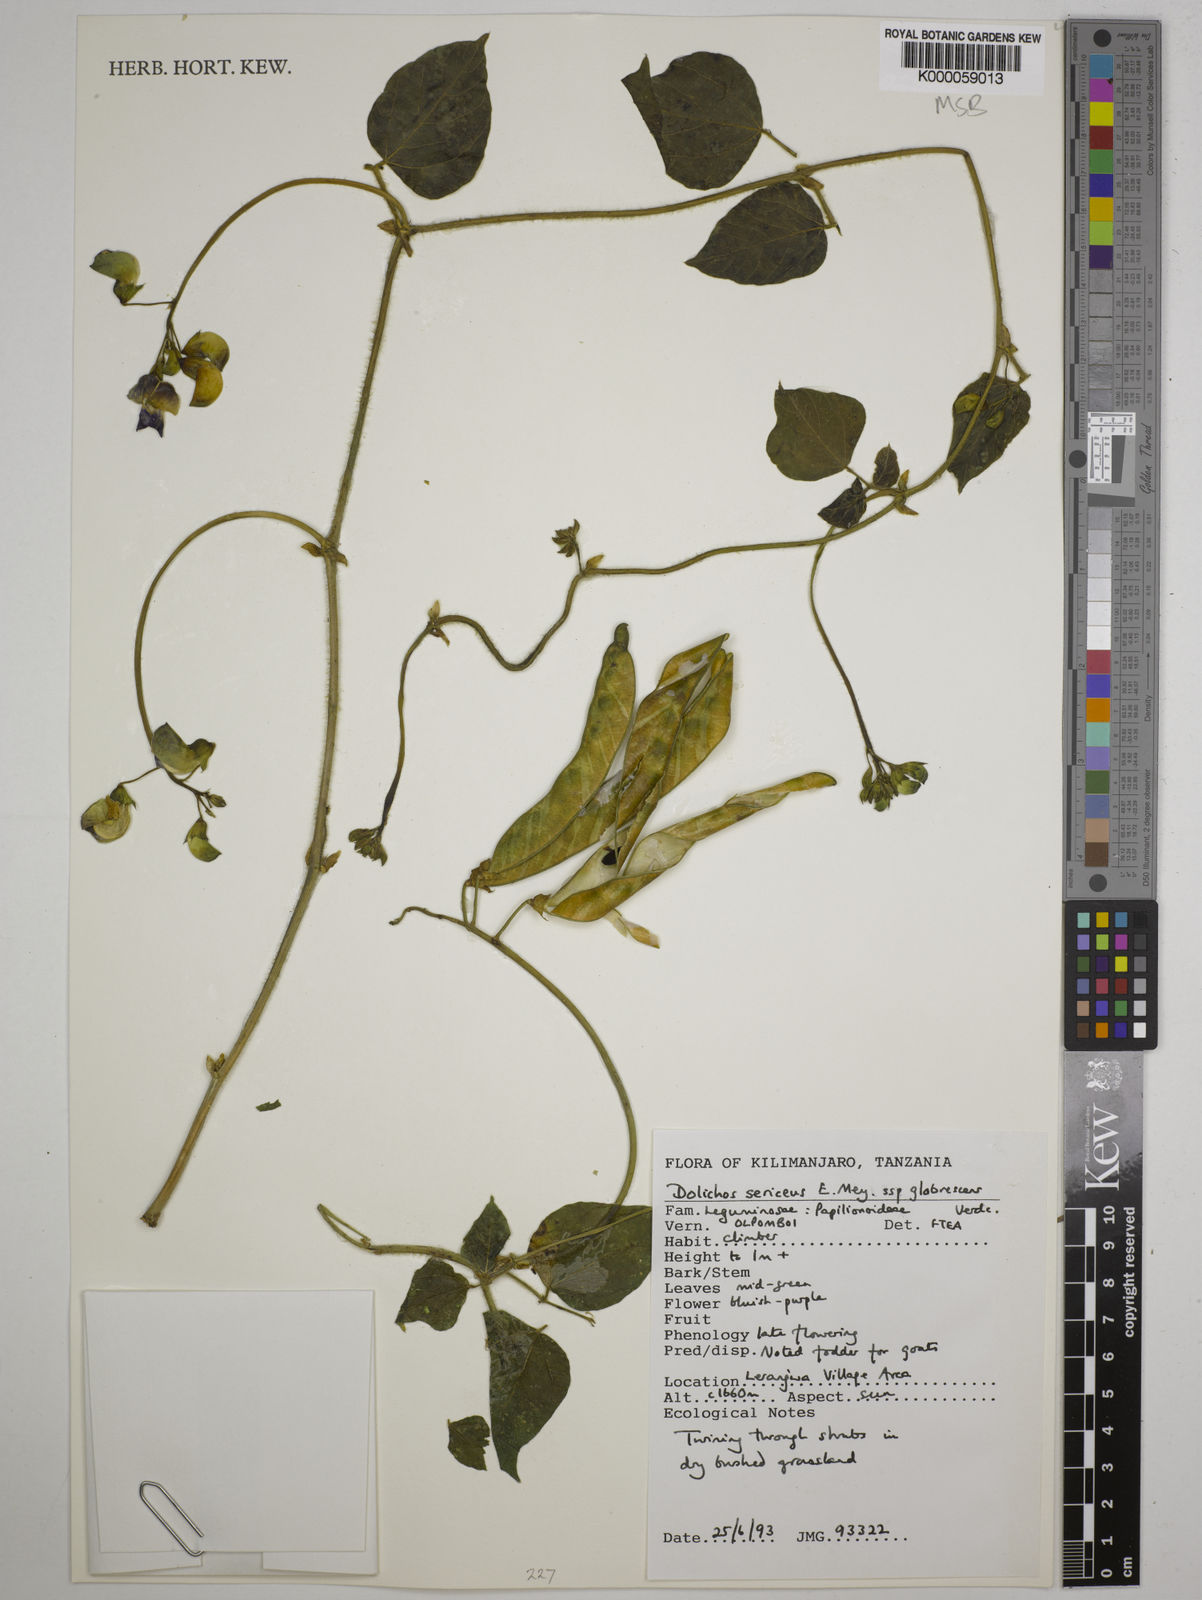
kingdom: Plantae
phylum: Tracheophyta
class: Magnoliopsida
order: Fabales
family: Fabaceae
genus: Dolichos
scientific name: Dolichos sericeus
